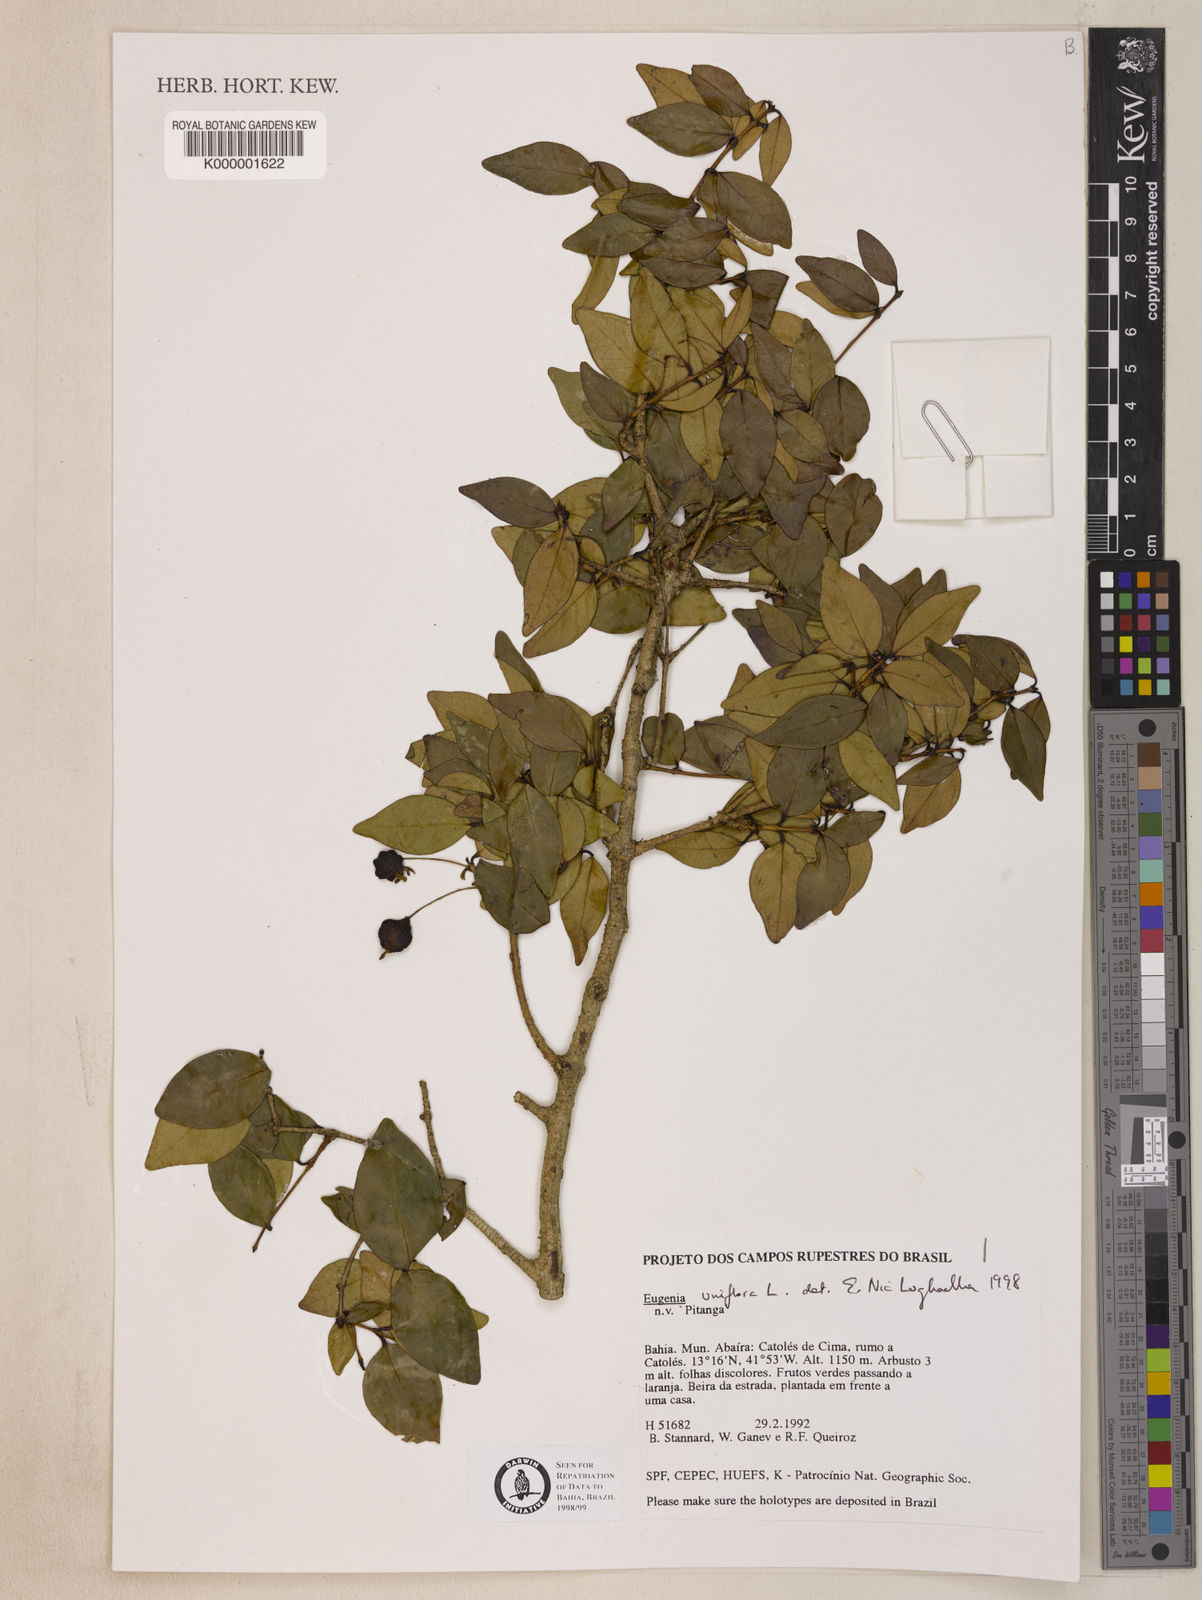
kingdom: Plantae
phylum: Tracheophyta
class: Magnoliopsida
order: Myrtales
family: Myrtaceae
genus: Eugenia
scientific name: Eugenia uniflora
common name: Surinam cherry
